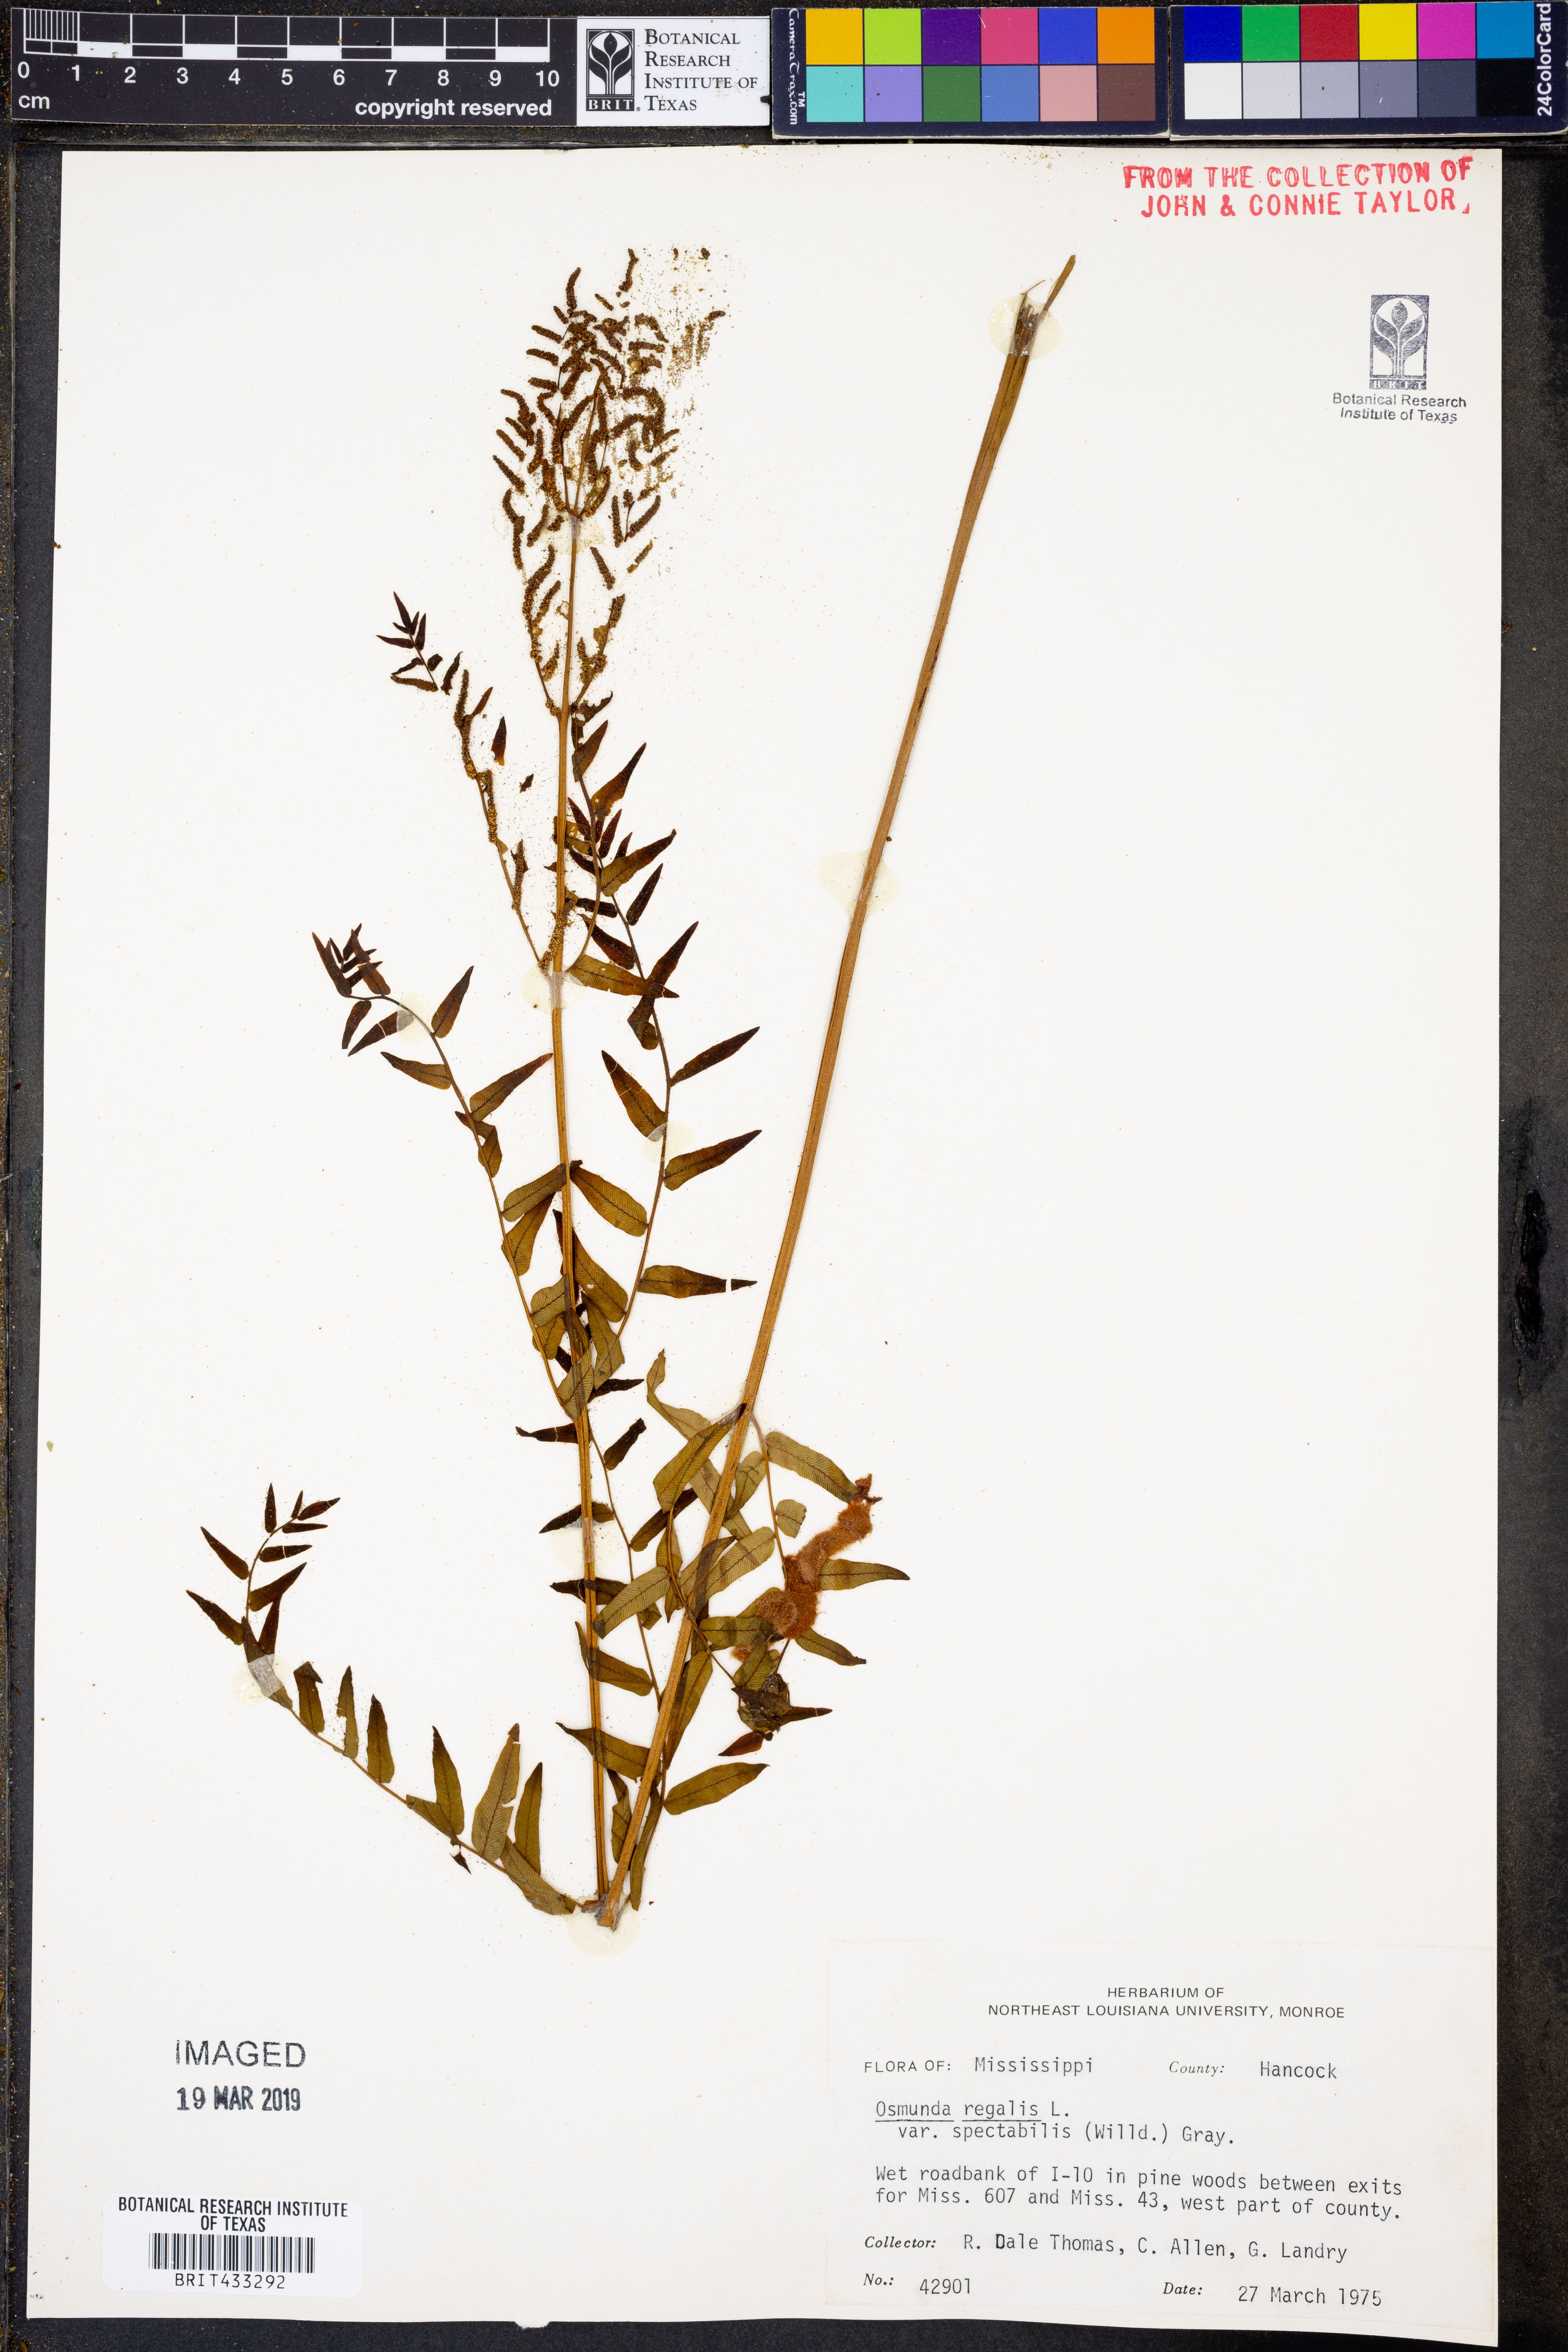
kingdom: Plantae
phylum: Tracheophyta
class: Polypodiopsida
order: Osmundales
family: Osmundaceae
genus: Osmunda
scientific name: Osmunda spectabilis
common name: American royal fern
